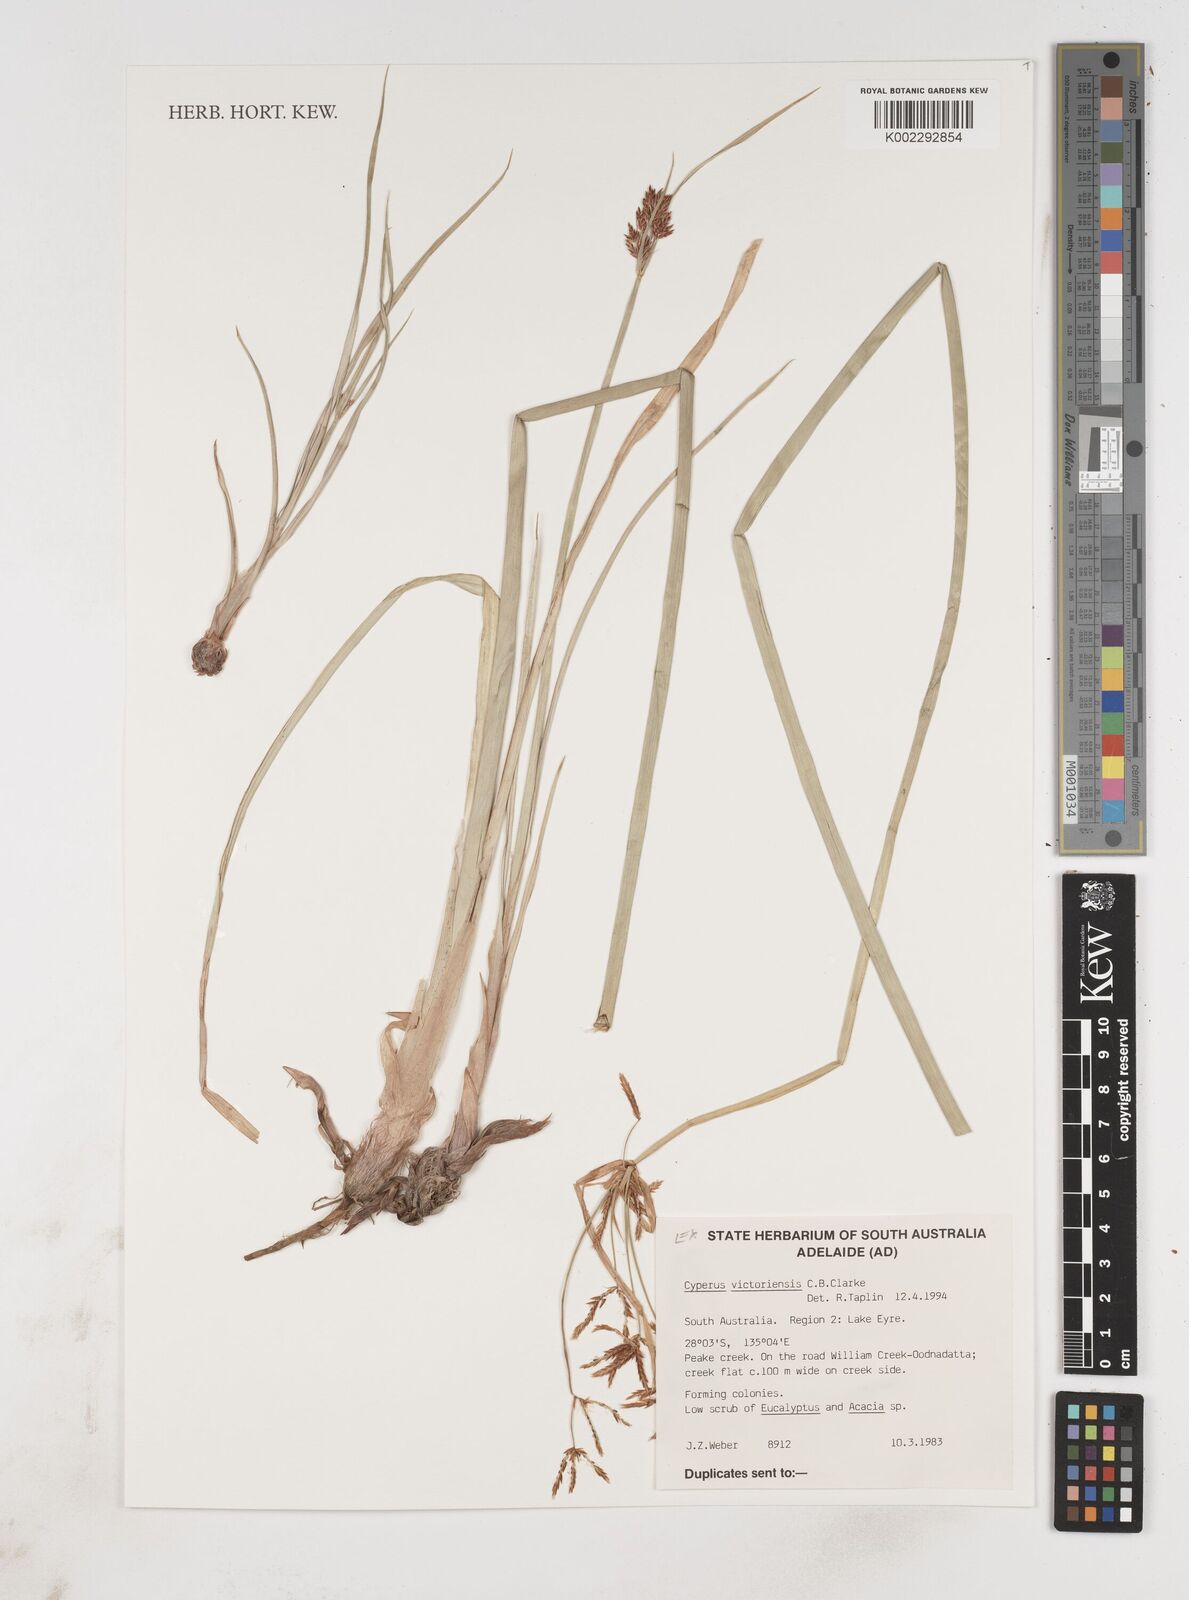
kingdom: Plantae
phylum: Tracheophyta
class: Liliopsida
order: Poales
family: Cyperaceae
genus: Cyperus
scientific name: Cyperus victoriensis
